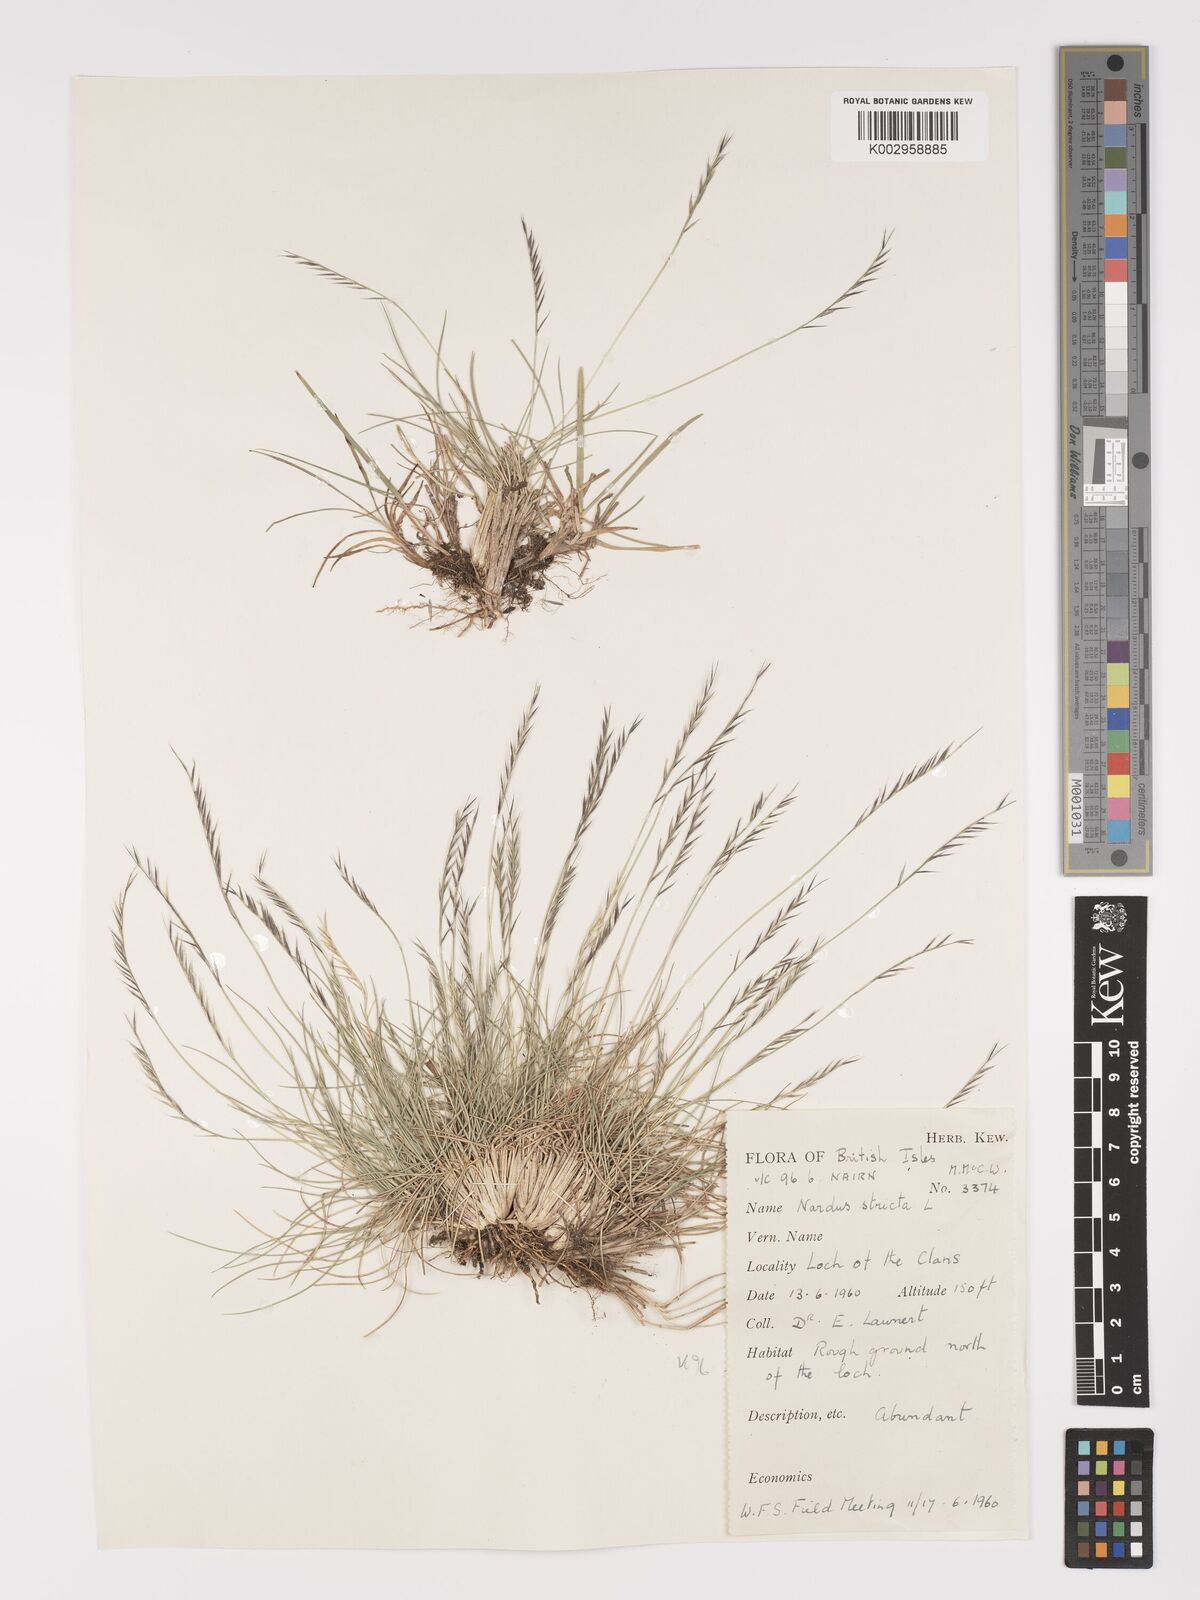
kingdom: Plantae
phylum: Tracheophyta
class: Liliopsida
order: Poales
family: Poaceae
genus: Nardus
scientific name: Nardus stricta
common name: Mat-grass
